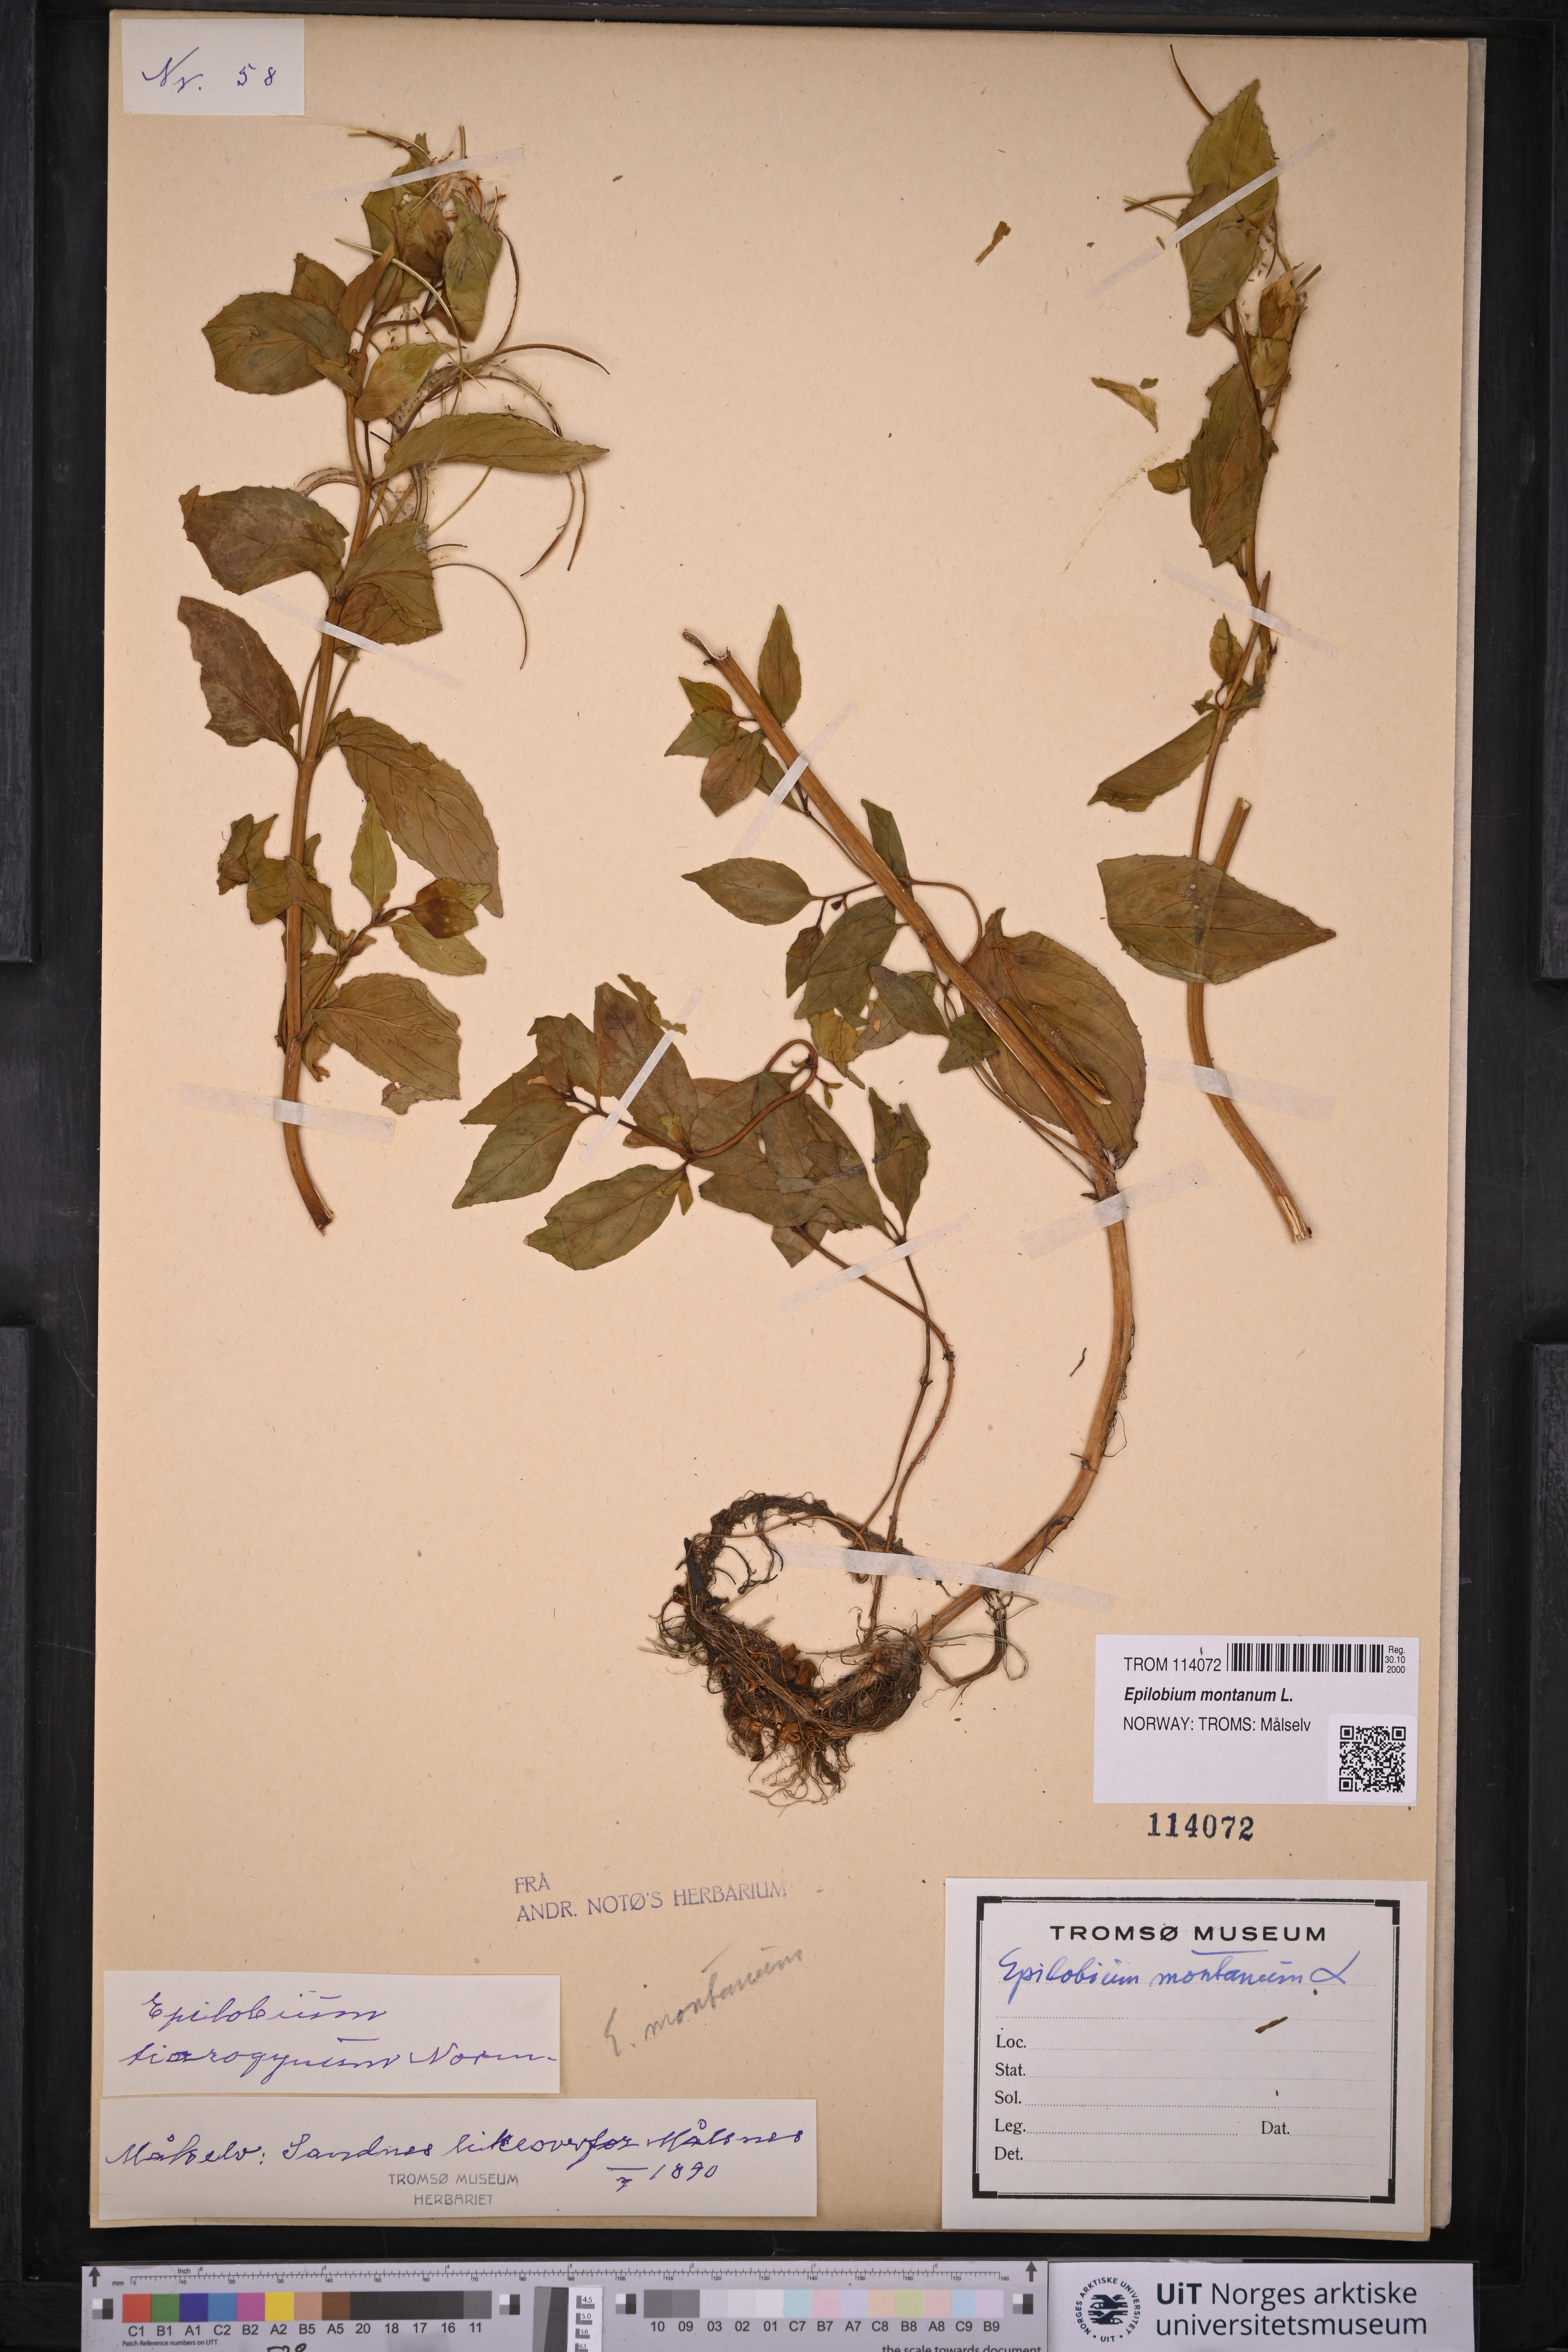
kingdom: Plantae
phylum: Tracheophyta
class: Magnoliopsida
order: Myrtales
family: Onagraceae
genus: Epilobium
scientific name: Epilobium montanum
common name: Broad-leaved willowherb
